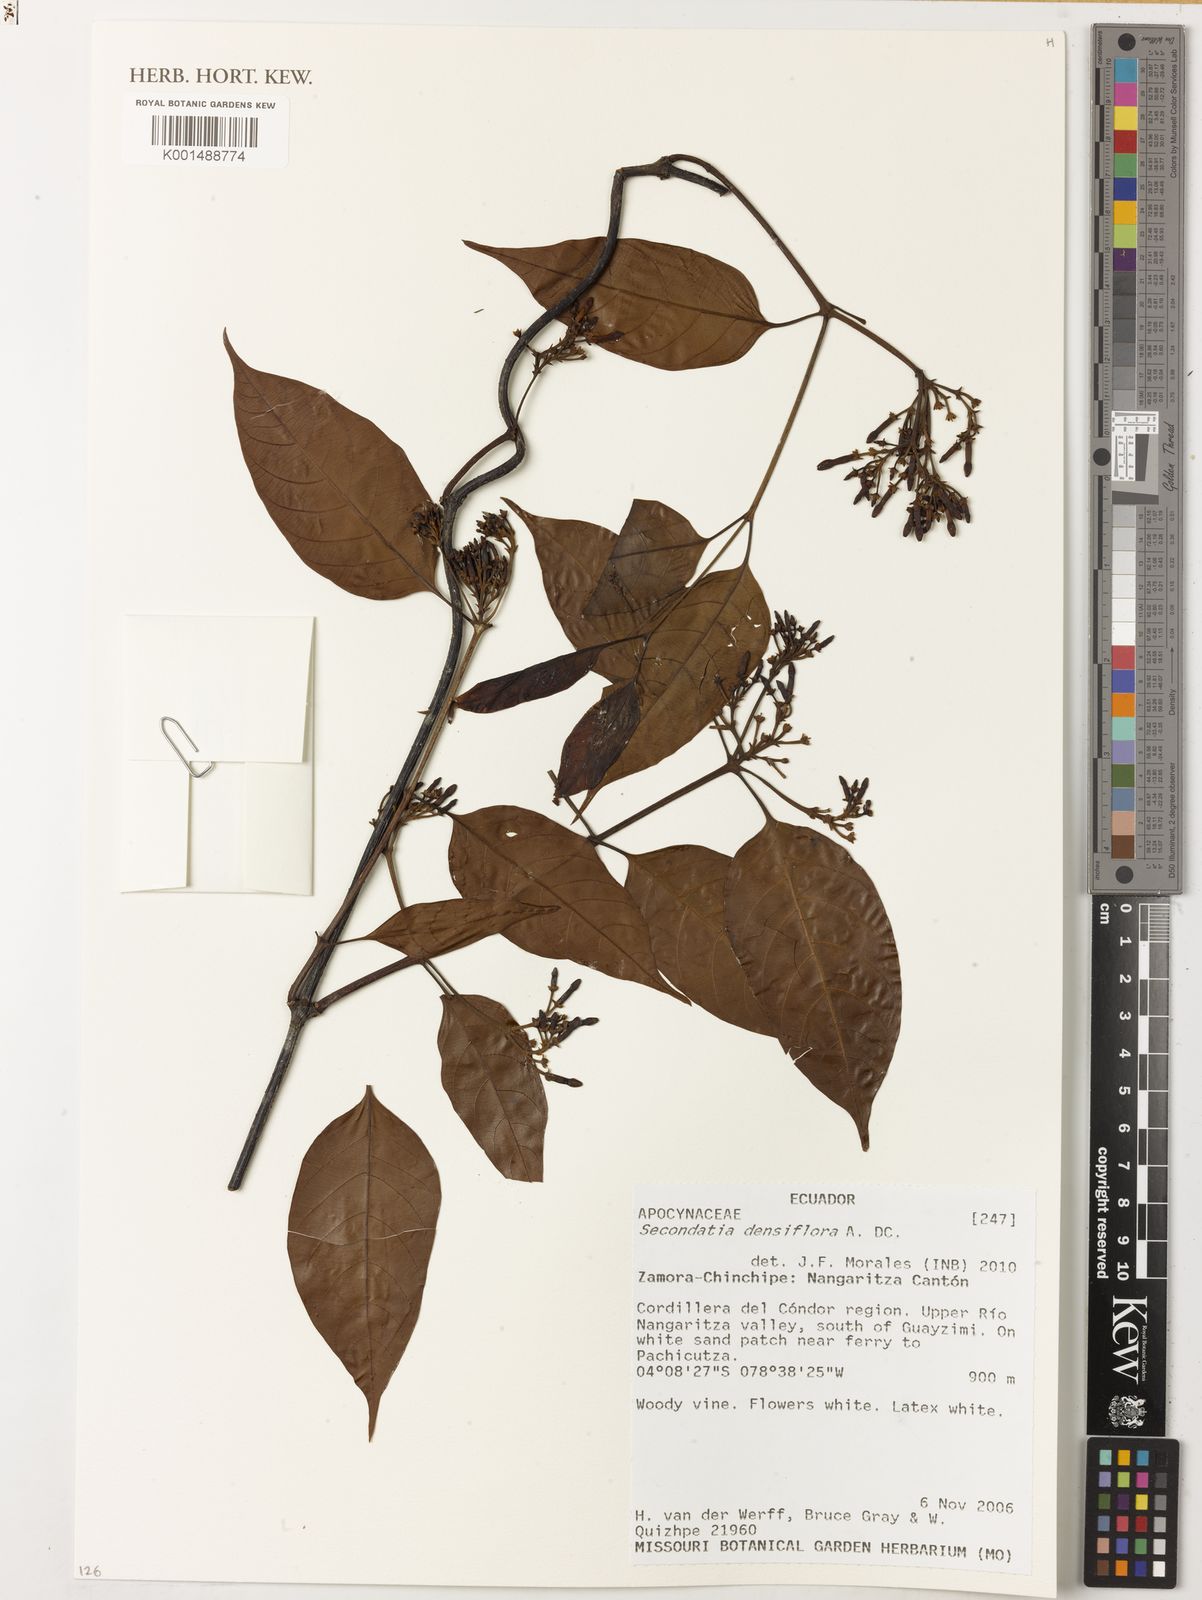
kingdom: Plantae
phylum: Tracheophyta
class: Magnoliopsida
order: Gentianales
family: Apocynaceae
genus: Secondatia
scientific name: Secondatia densiflora
